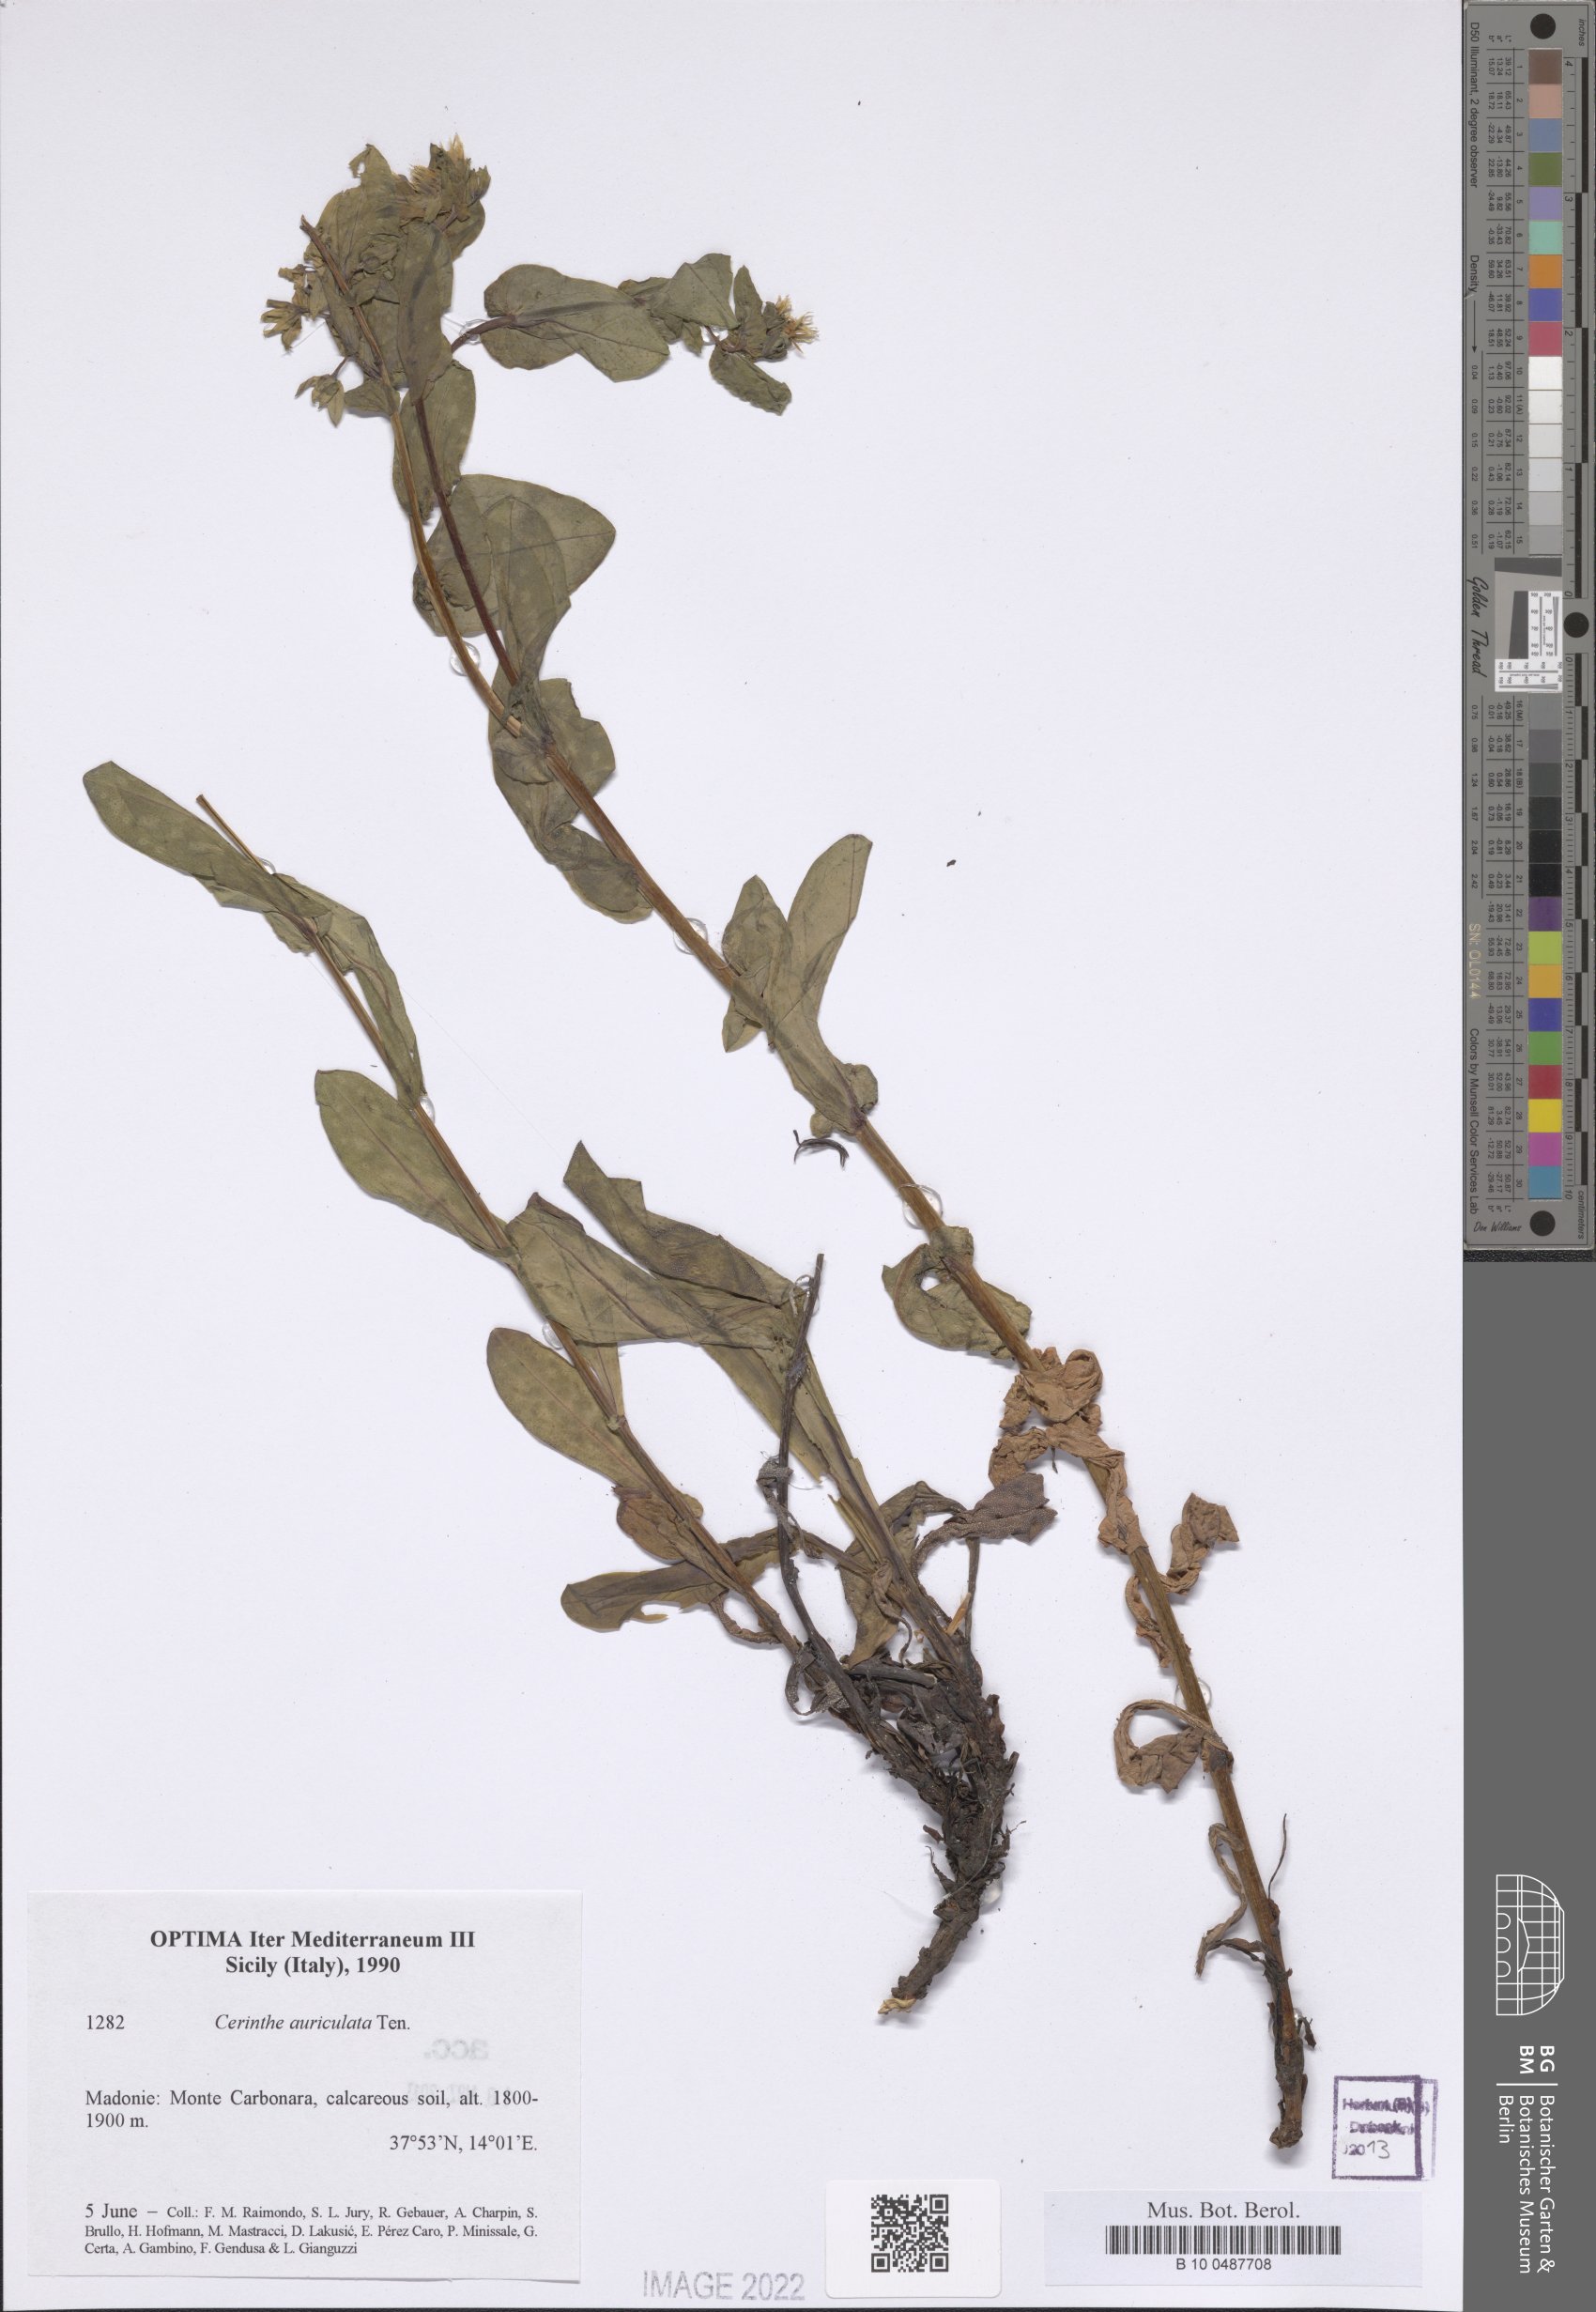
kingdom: Plantae
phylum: Tracheophyta
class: Magnoliopsida
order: Boraginales
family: Boraginaceae
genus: Cerinthe
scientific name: Cerinthe minor
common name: Lesser honeywort
